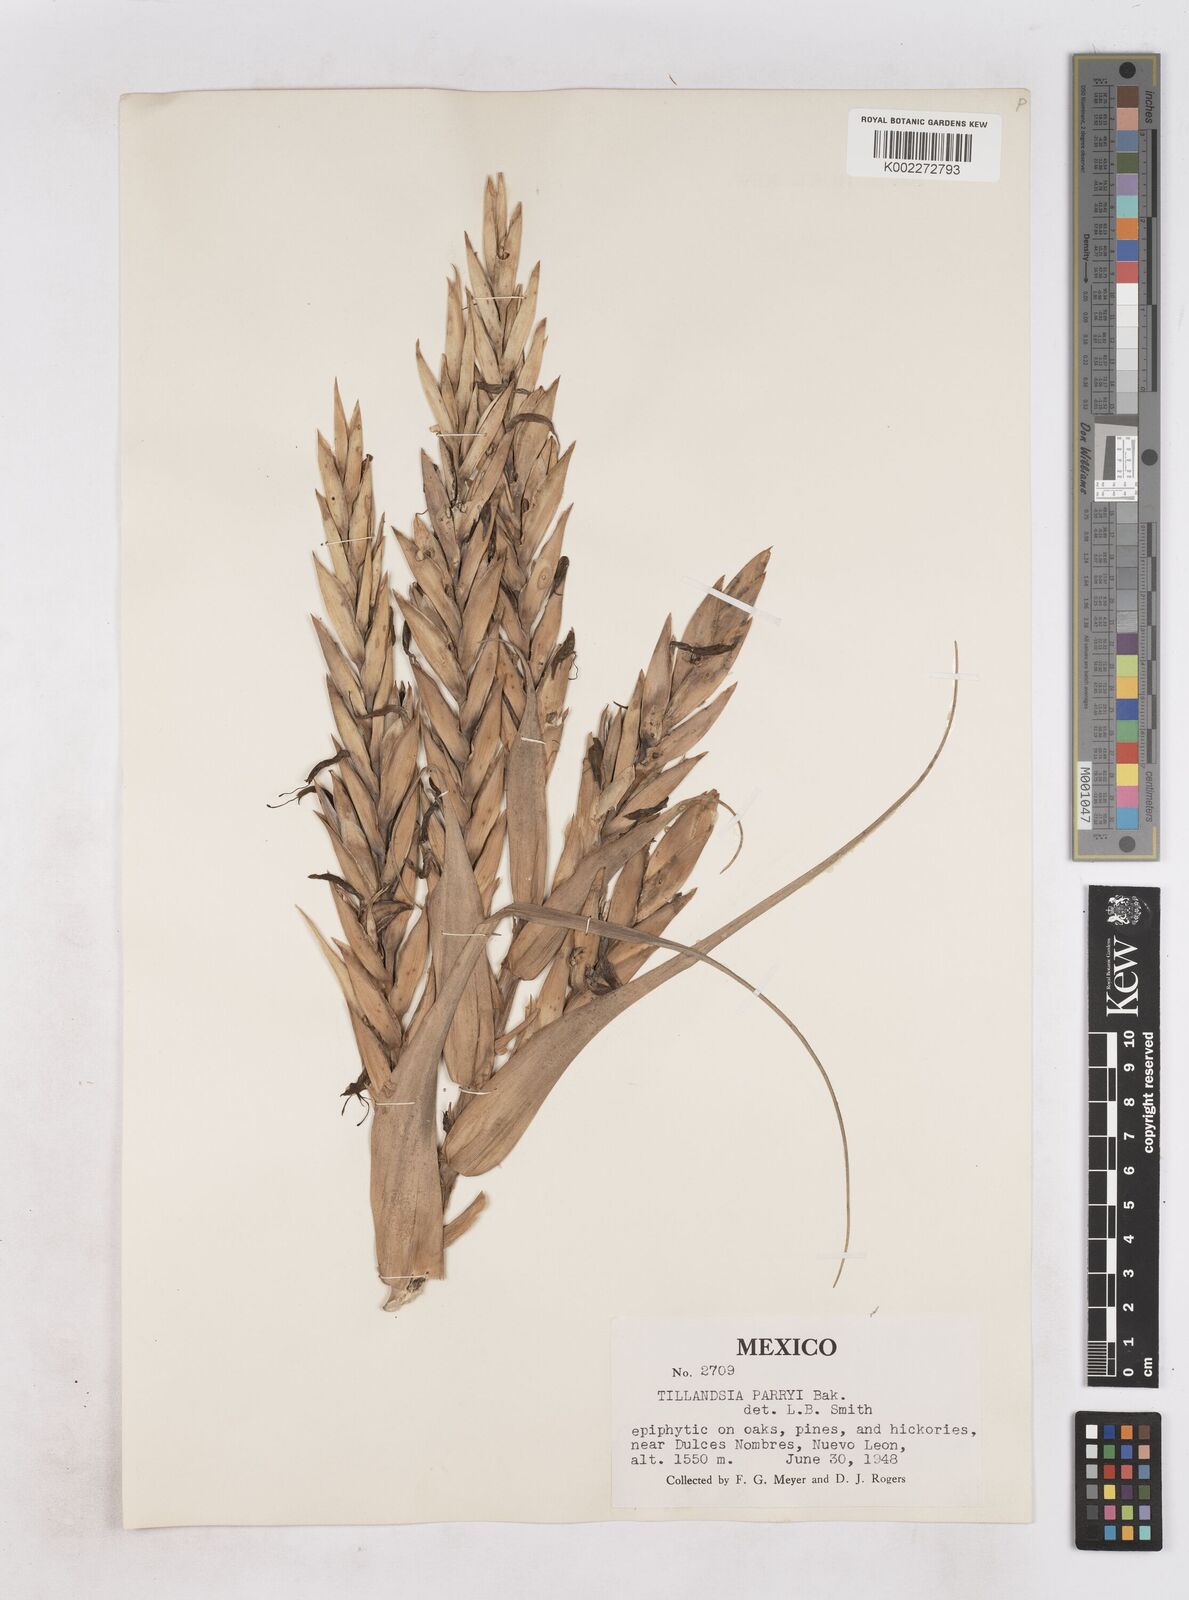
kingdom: Plantae
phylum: Tracheophyta
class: Liliopsida
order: Poales
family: Bromeliaceae
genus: Tillandsia
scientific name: Tillandsia parryi
